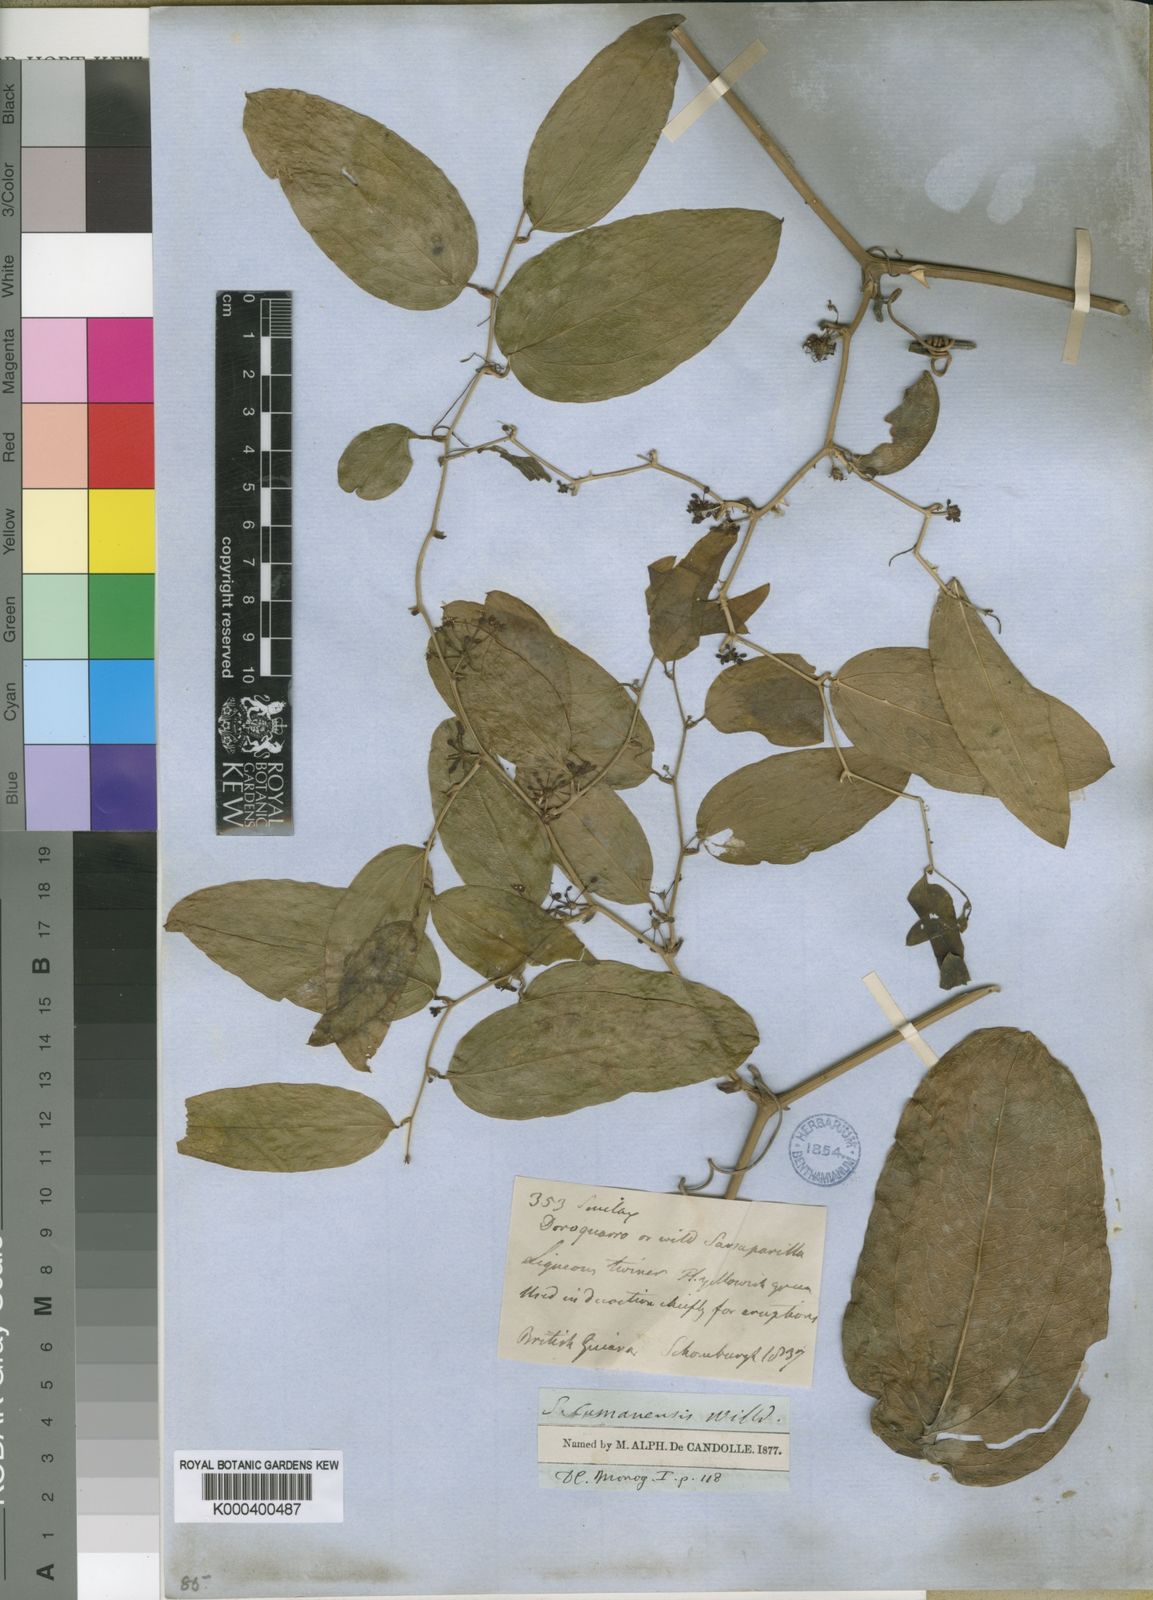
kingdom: Plantae
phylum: Tracheophyta
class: Liliopsida
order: Liliales
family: Smilacaceae
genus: Smilax
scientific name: Smilax oblongata
